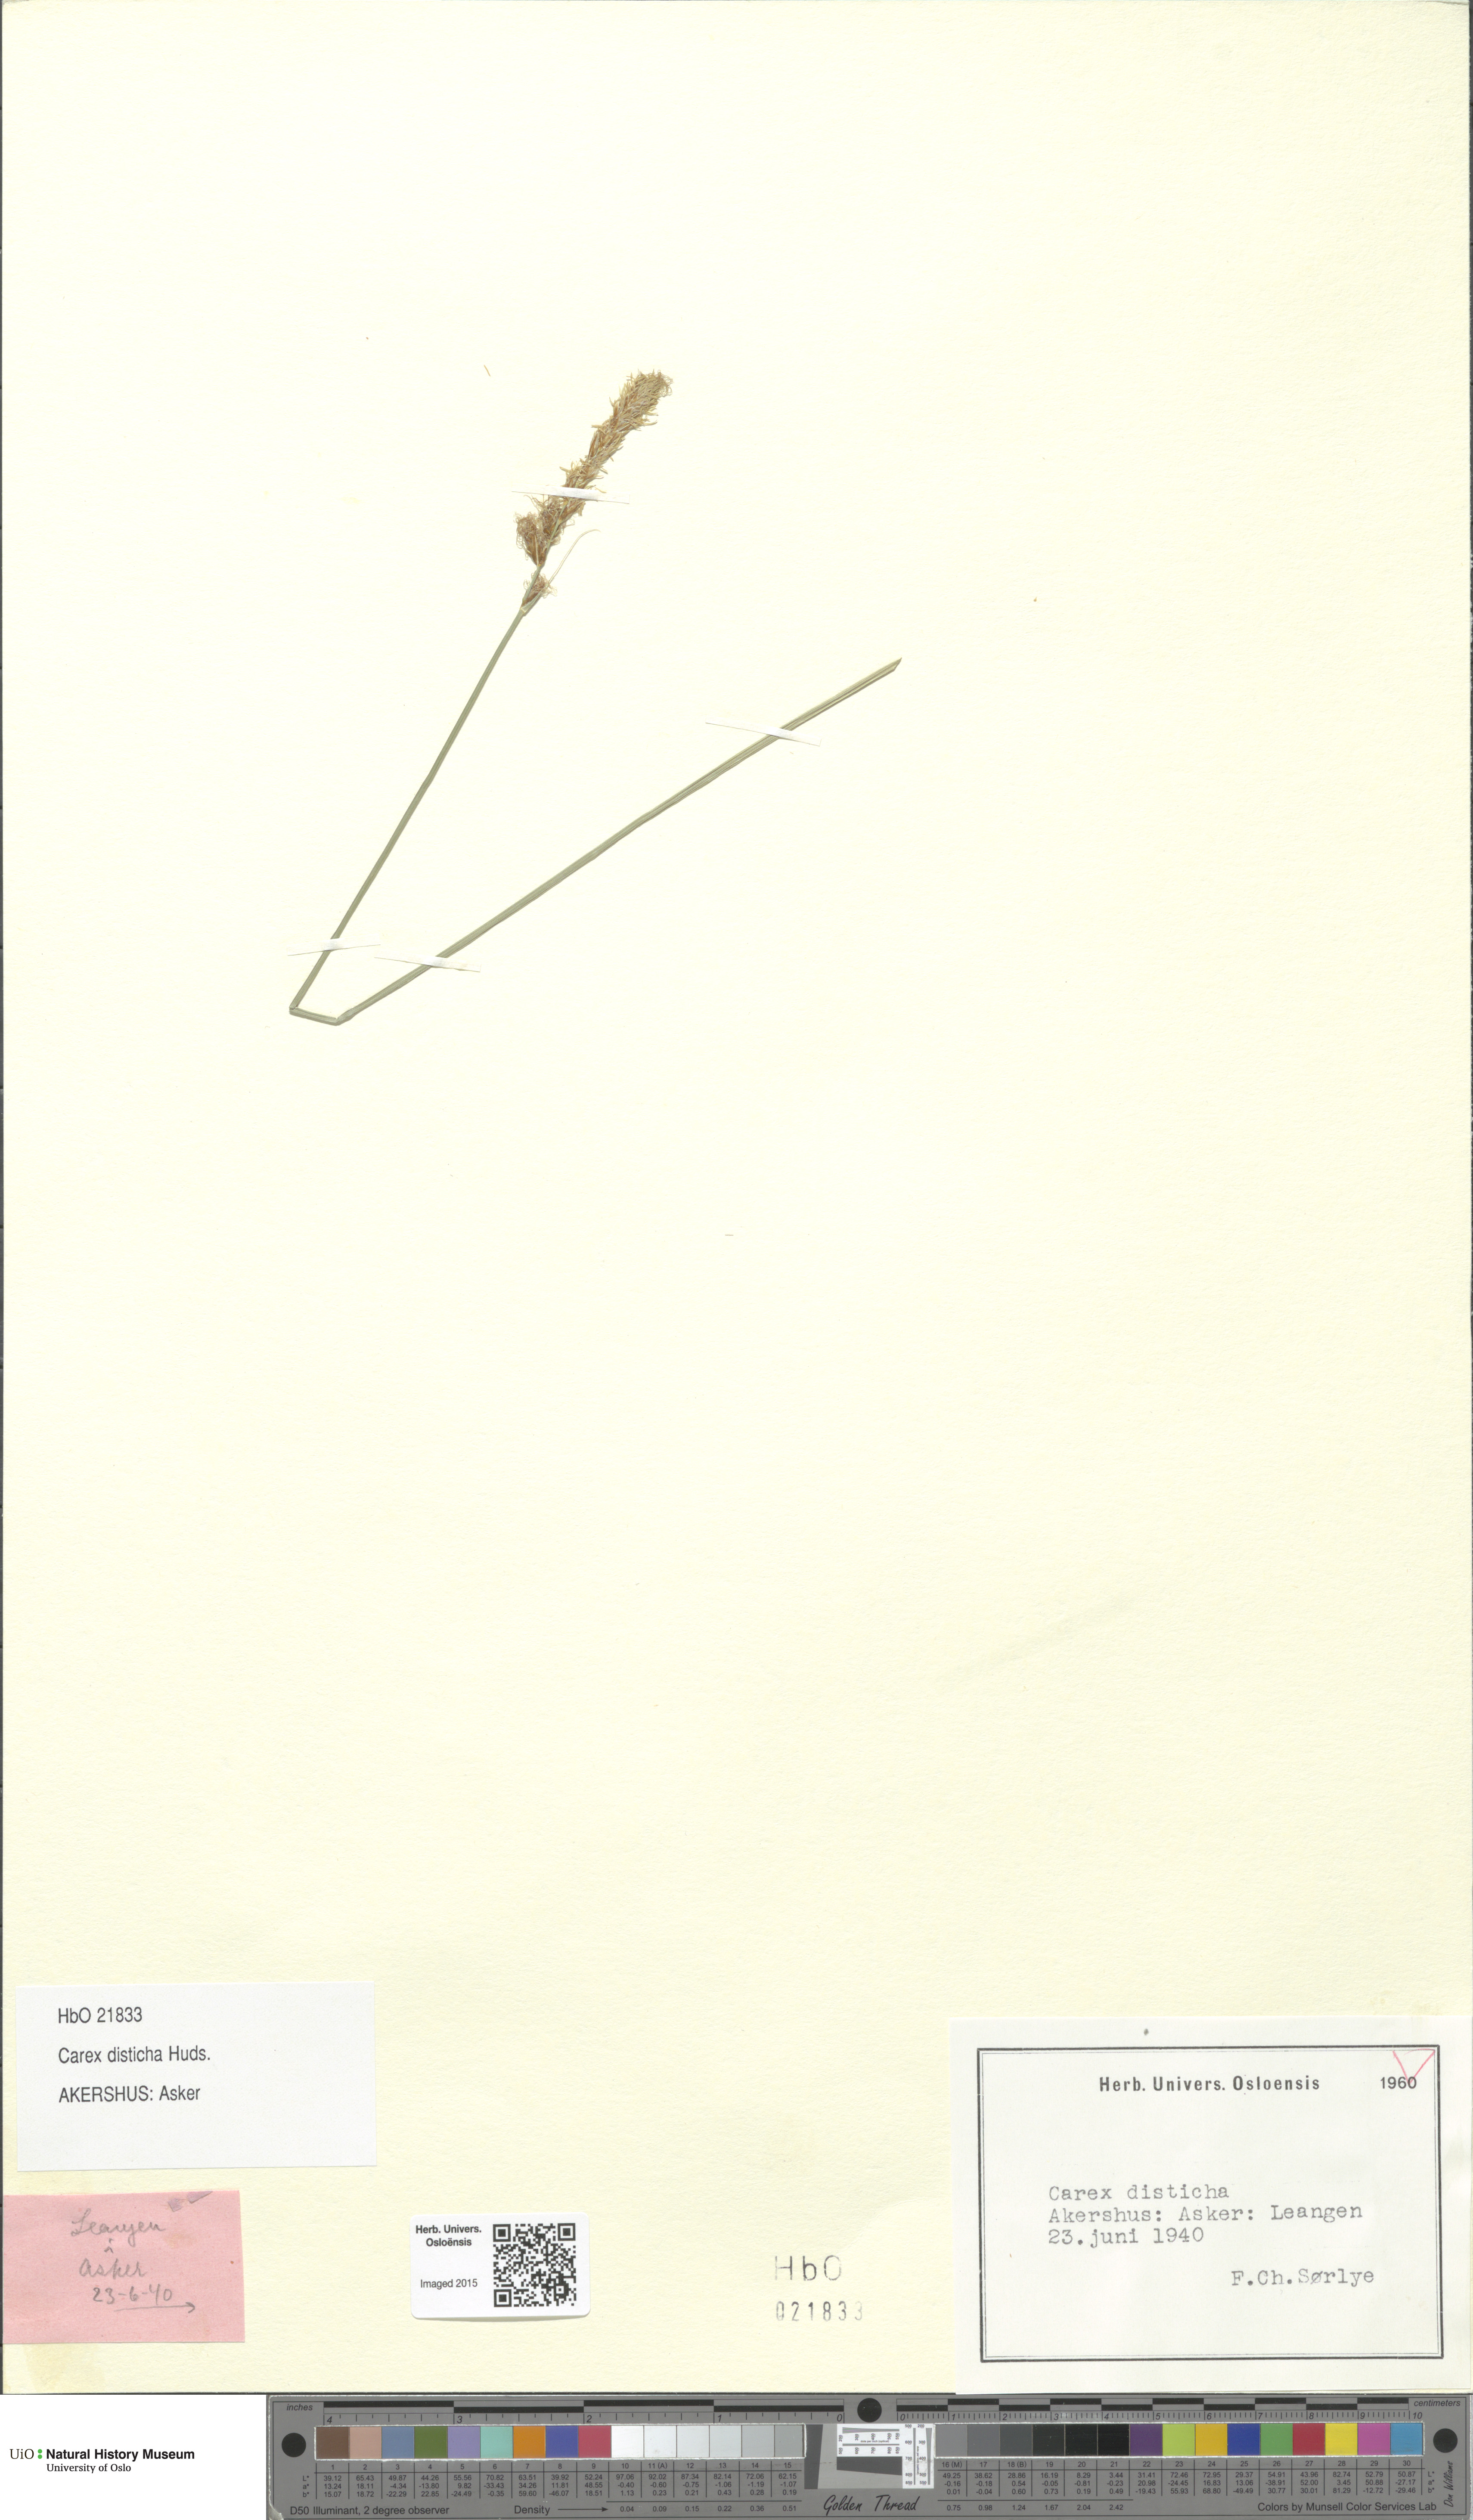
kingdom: Plantae
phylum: Tracheophyta
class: Liliopsida
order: Poales
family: Cyperaceae
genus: Carex
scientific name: Carex disticha
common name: Brown sedge
